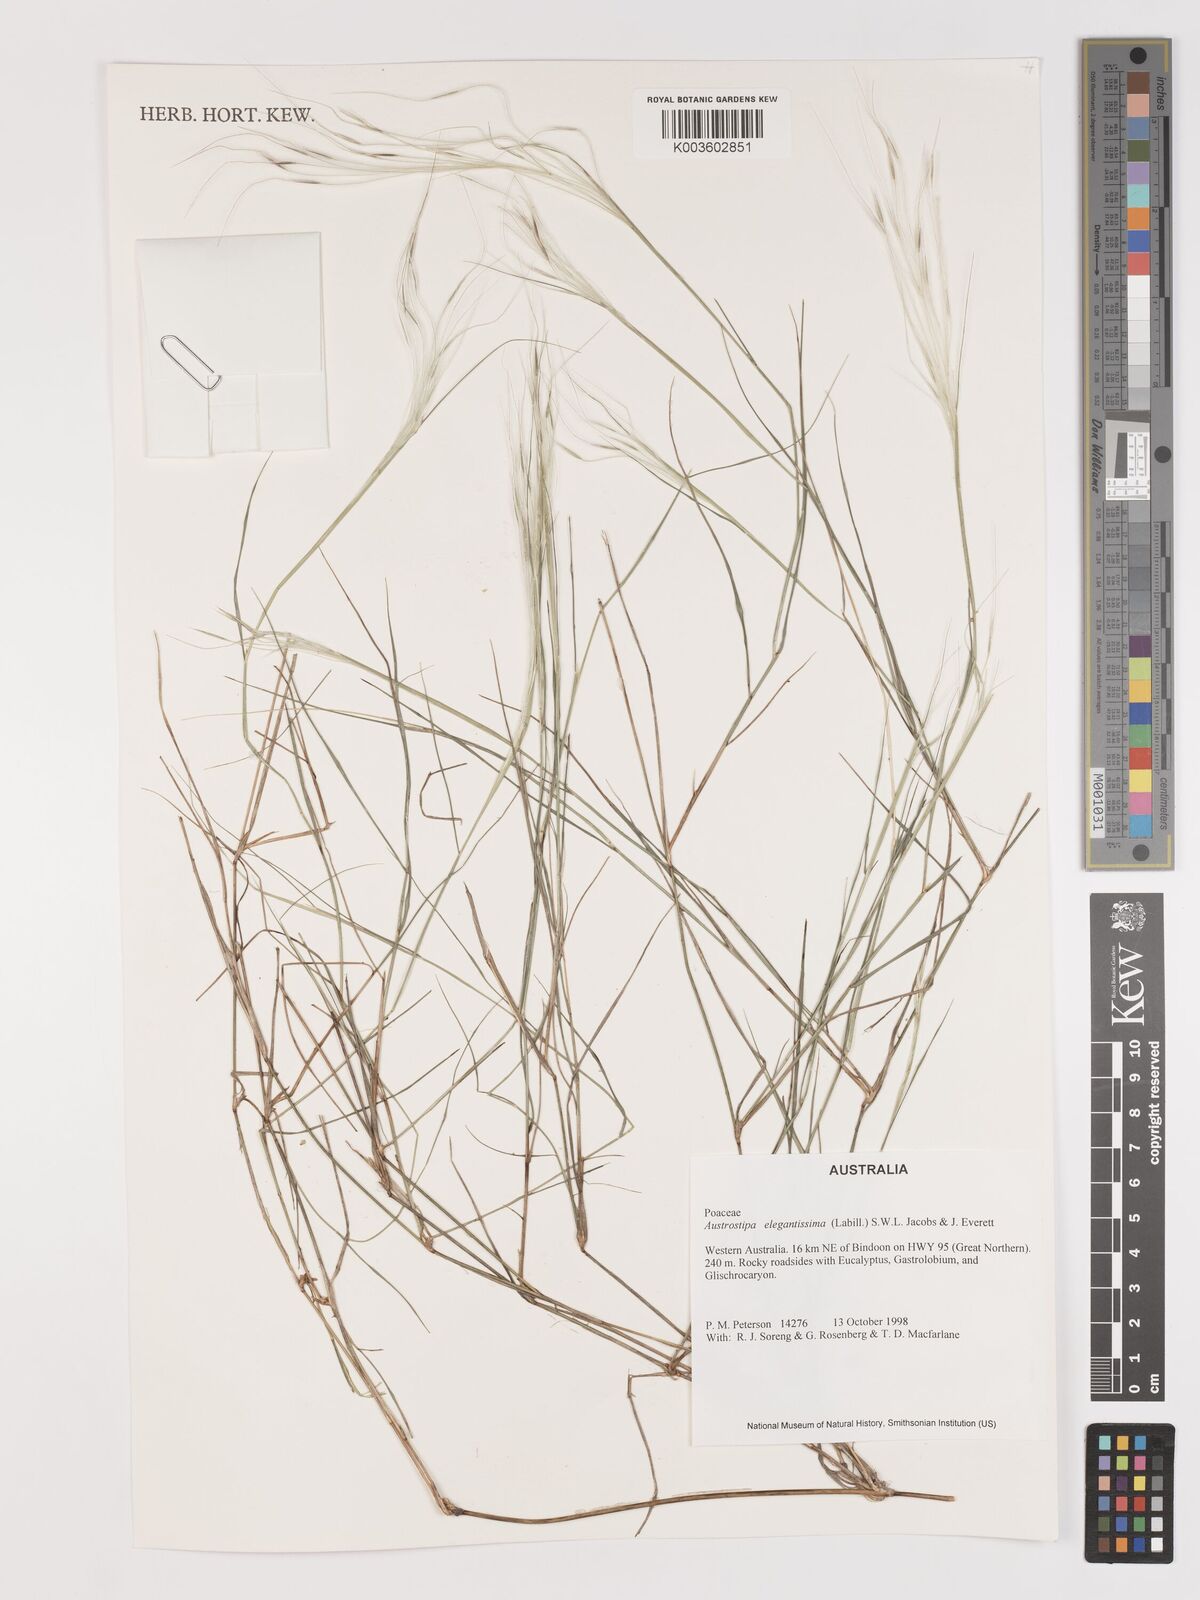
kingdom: Plantae
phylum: Tracheophyta
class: Liliopsida
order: Poales
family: Poaceae
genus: Austrostipa
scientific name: Austrostipa elegantissima
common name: Feather spear grass
